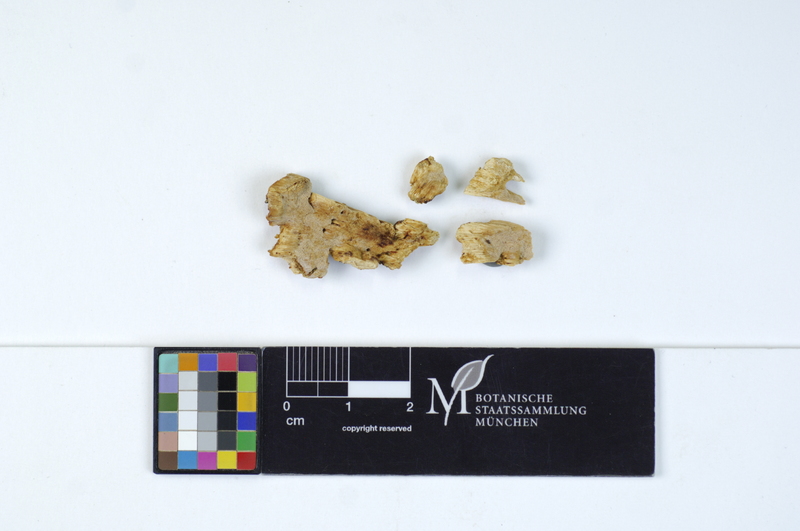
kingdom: Fungi
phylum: Basidiomycota
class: Agaricomycetes
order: Polyporales
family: Meripilaceae
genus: Rigidoporus
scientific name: Rigidoporus undatus
